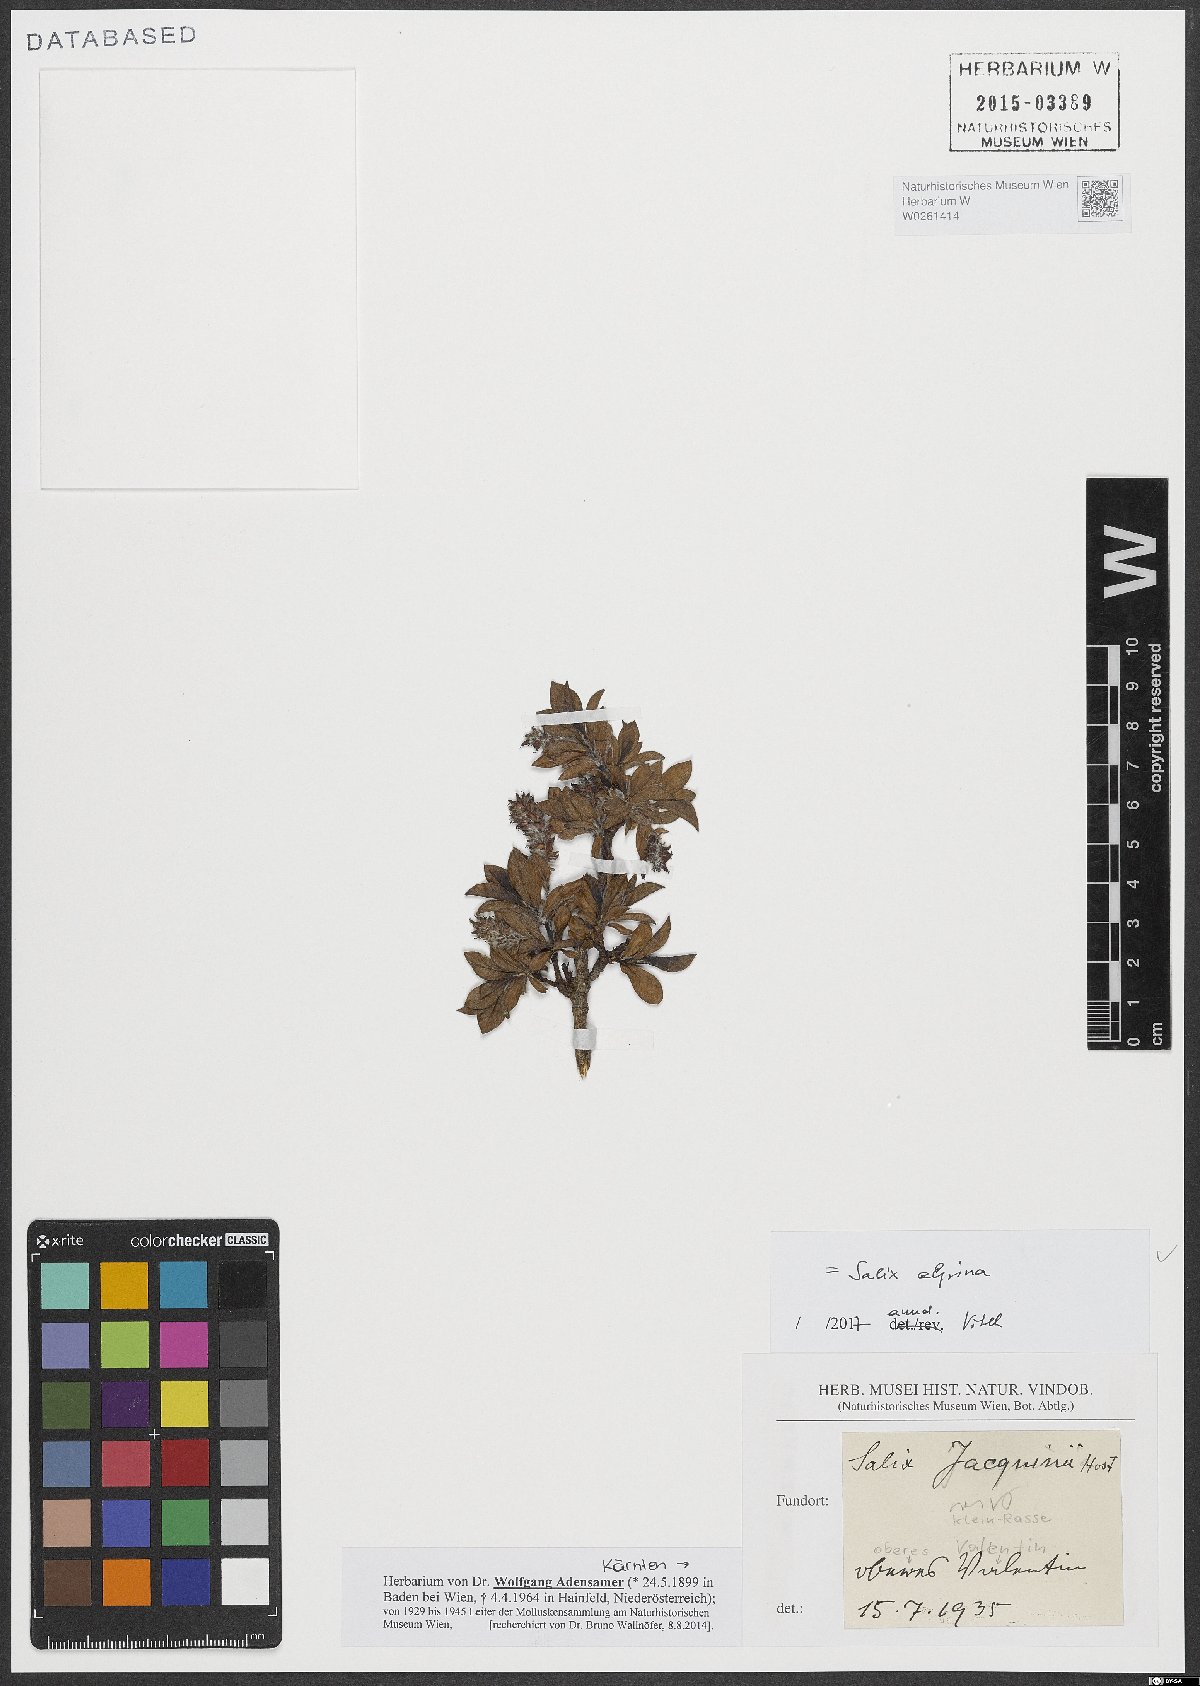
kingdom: Plantae
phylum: Tracheophyta
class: Magnoliopsida
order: Malpighiales
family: Salicaceae
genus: Salix
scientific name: Salix alpina
